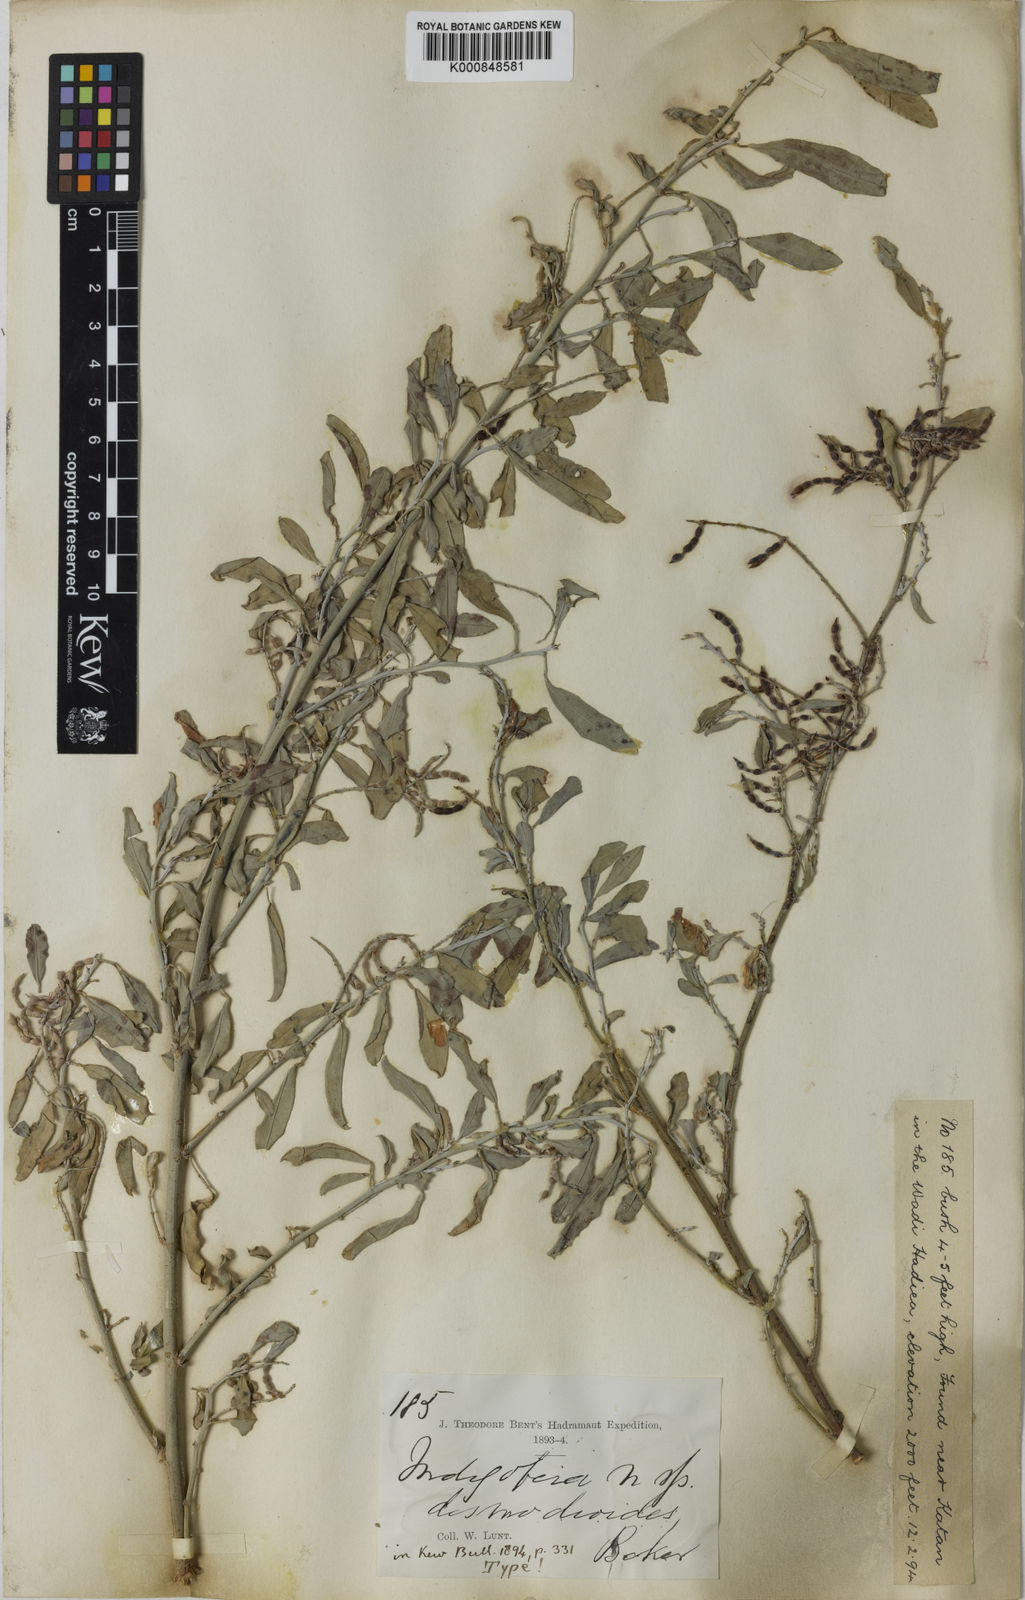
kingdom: Plantae
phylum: Tracheophyta
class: Magnoliopsida
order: Fabales
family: Fabaceae
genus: Indigofera
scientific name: Indigofera oblongifolia
